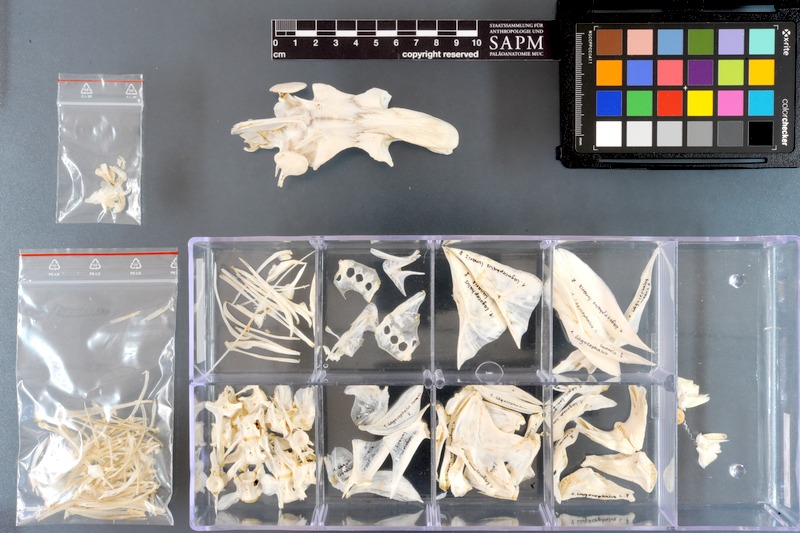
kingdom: Animalia
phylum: Chordata
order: Tetraodontiformes
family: Tetraodontidae
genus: Lagocephalus
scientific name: Lagocephalus lunaris
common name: Green rrough-backed puffer
